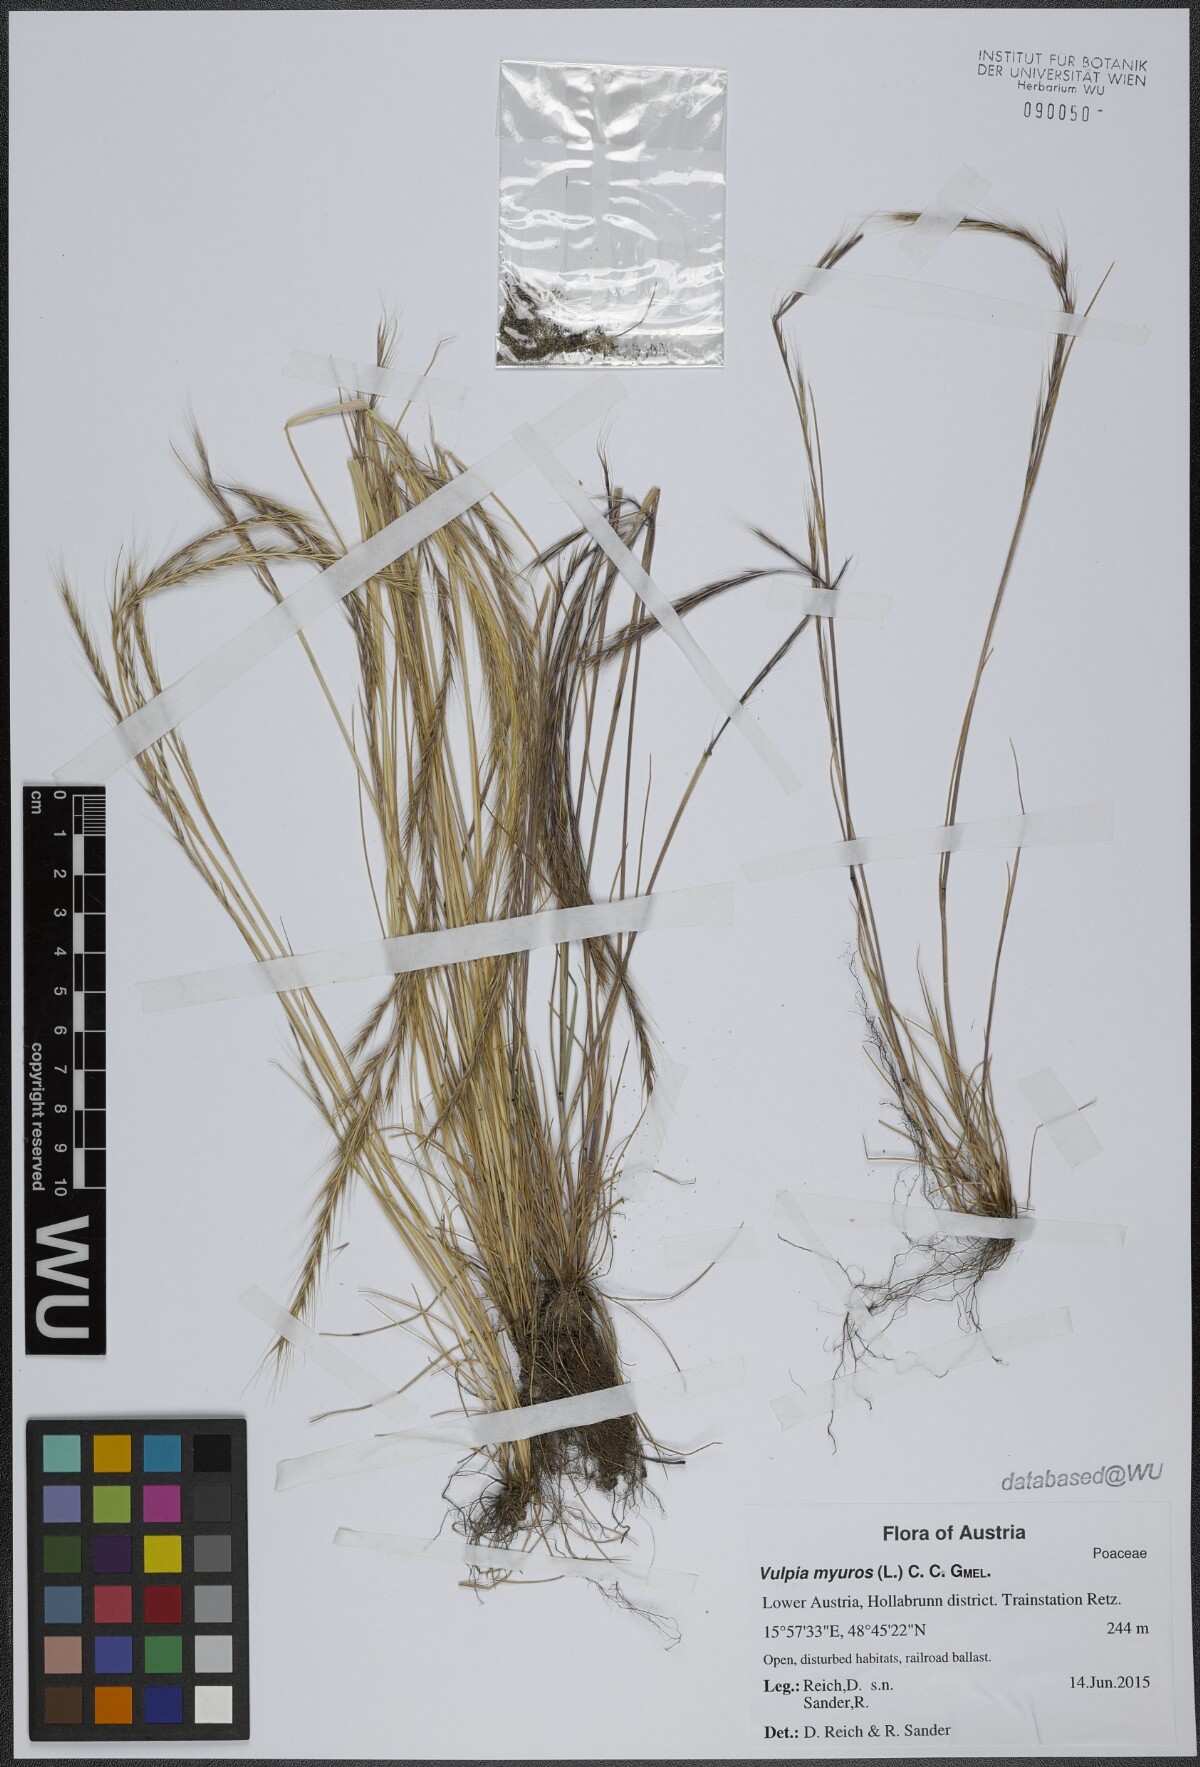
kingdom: Plantae
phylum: Tracheophyta
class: Liliopsida
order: Poales
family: Poaceae
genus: Festuca
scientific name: Festuca myuros
